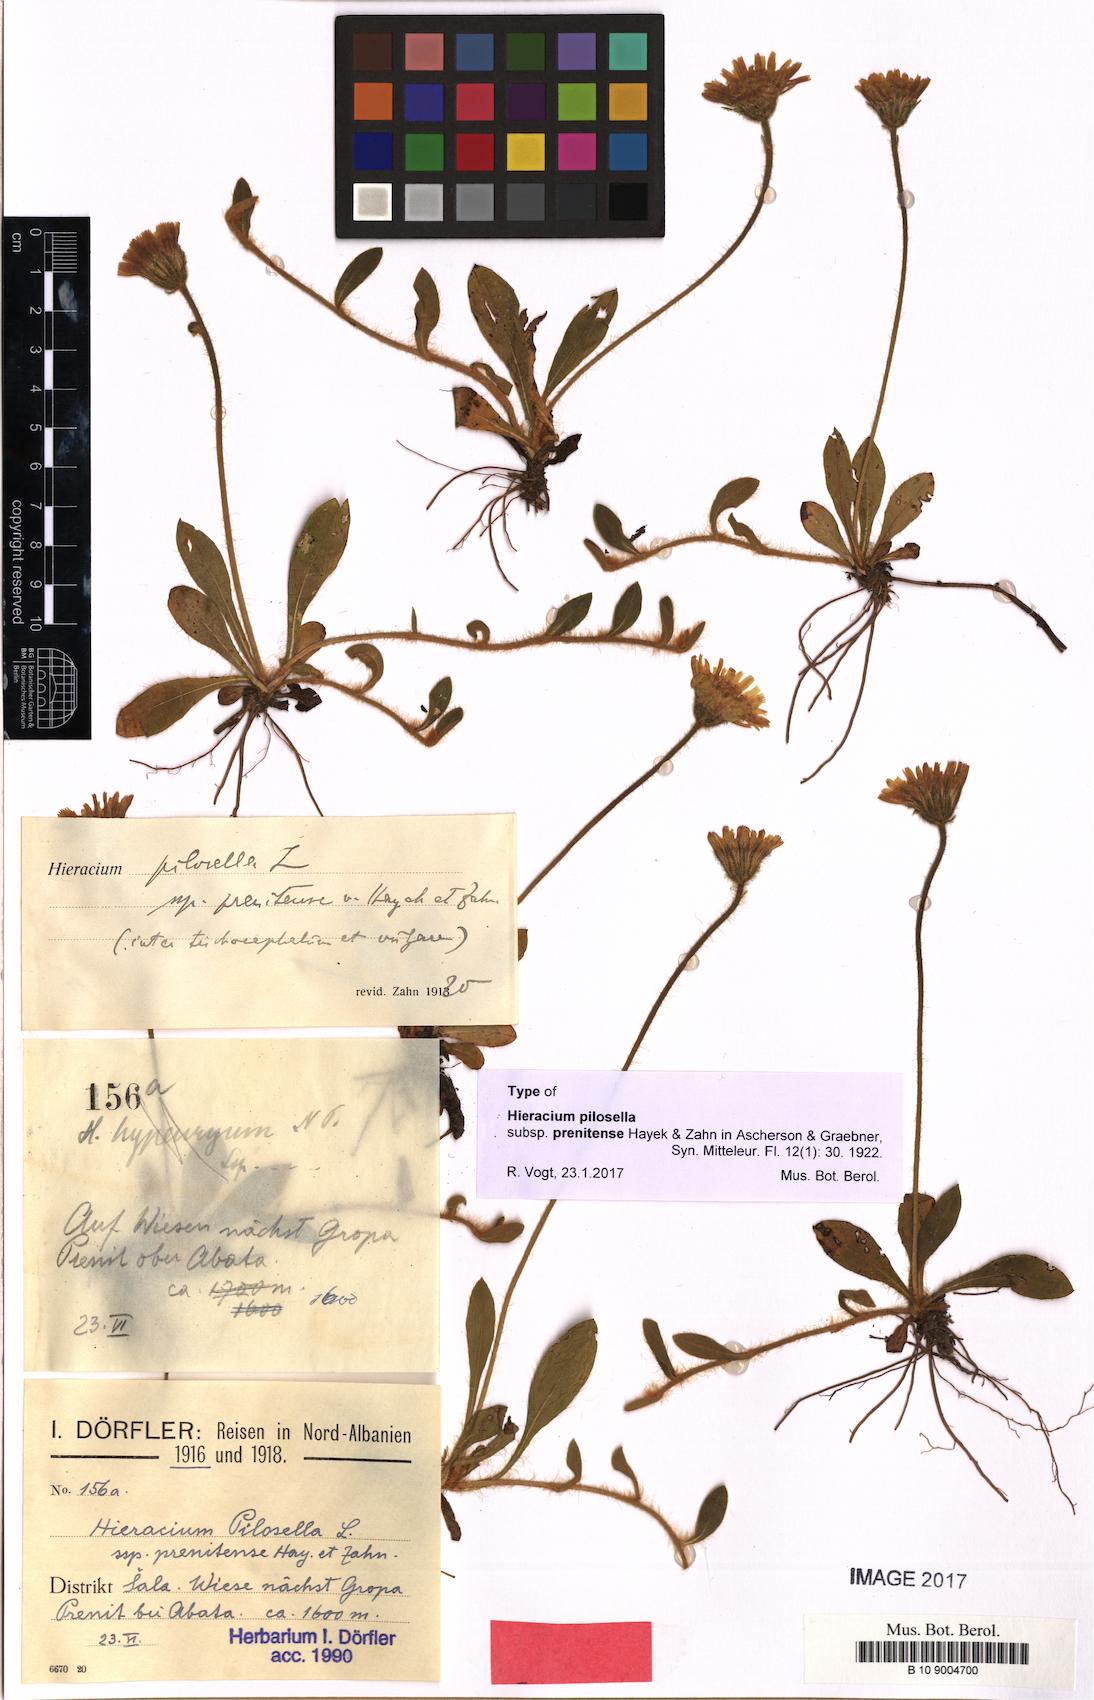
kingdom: Plantae
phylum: Tracheophyta
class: Magnoliopsida
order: Asterales
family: Asteraceae
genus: Pilosella
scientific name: Pilosella officinarum
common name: Mouse-ear hawkweed
